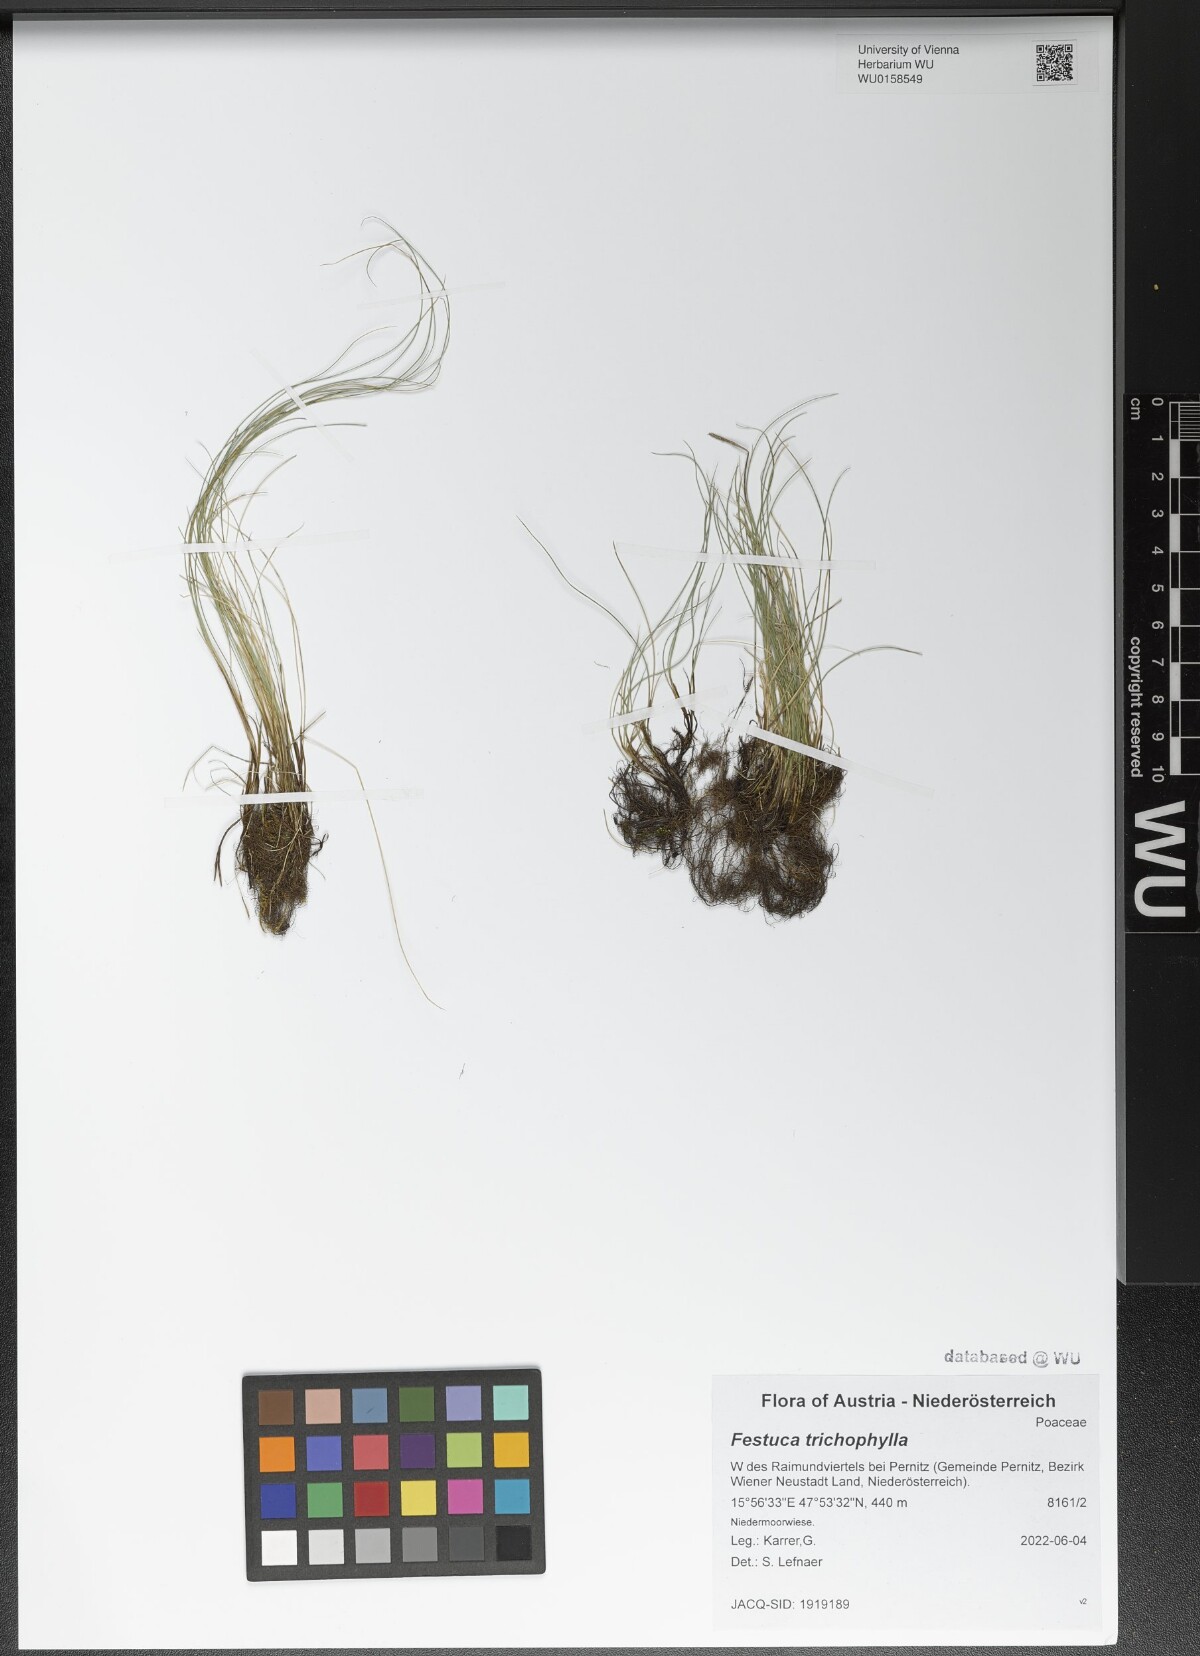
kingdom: Plantae
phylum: Tracheophyta
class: Liliopsida
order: Poales
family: Poaceae
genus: Festuca
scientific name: Festuca trichophylla
